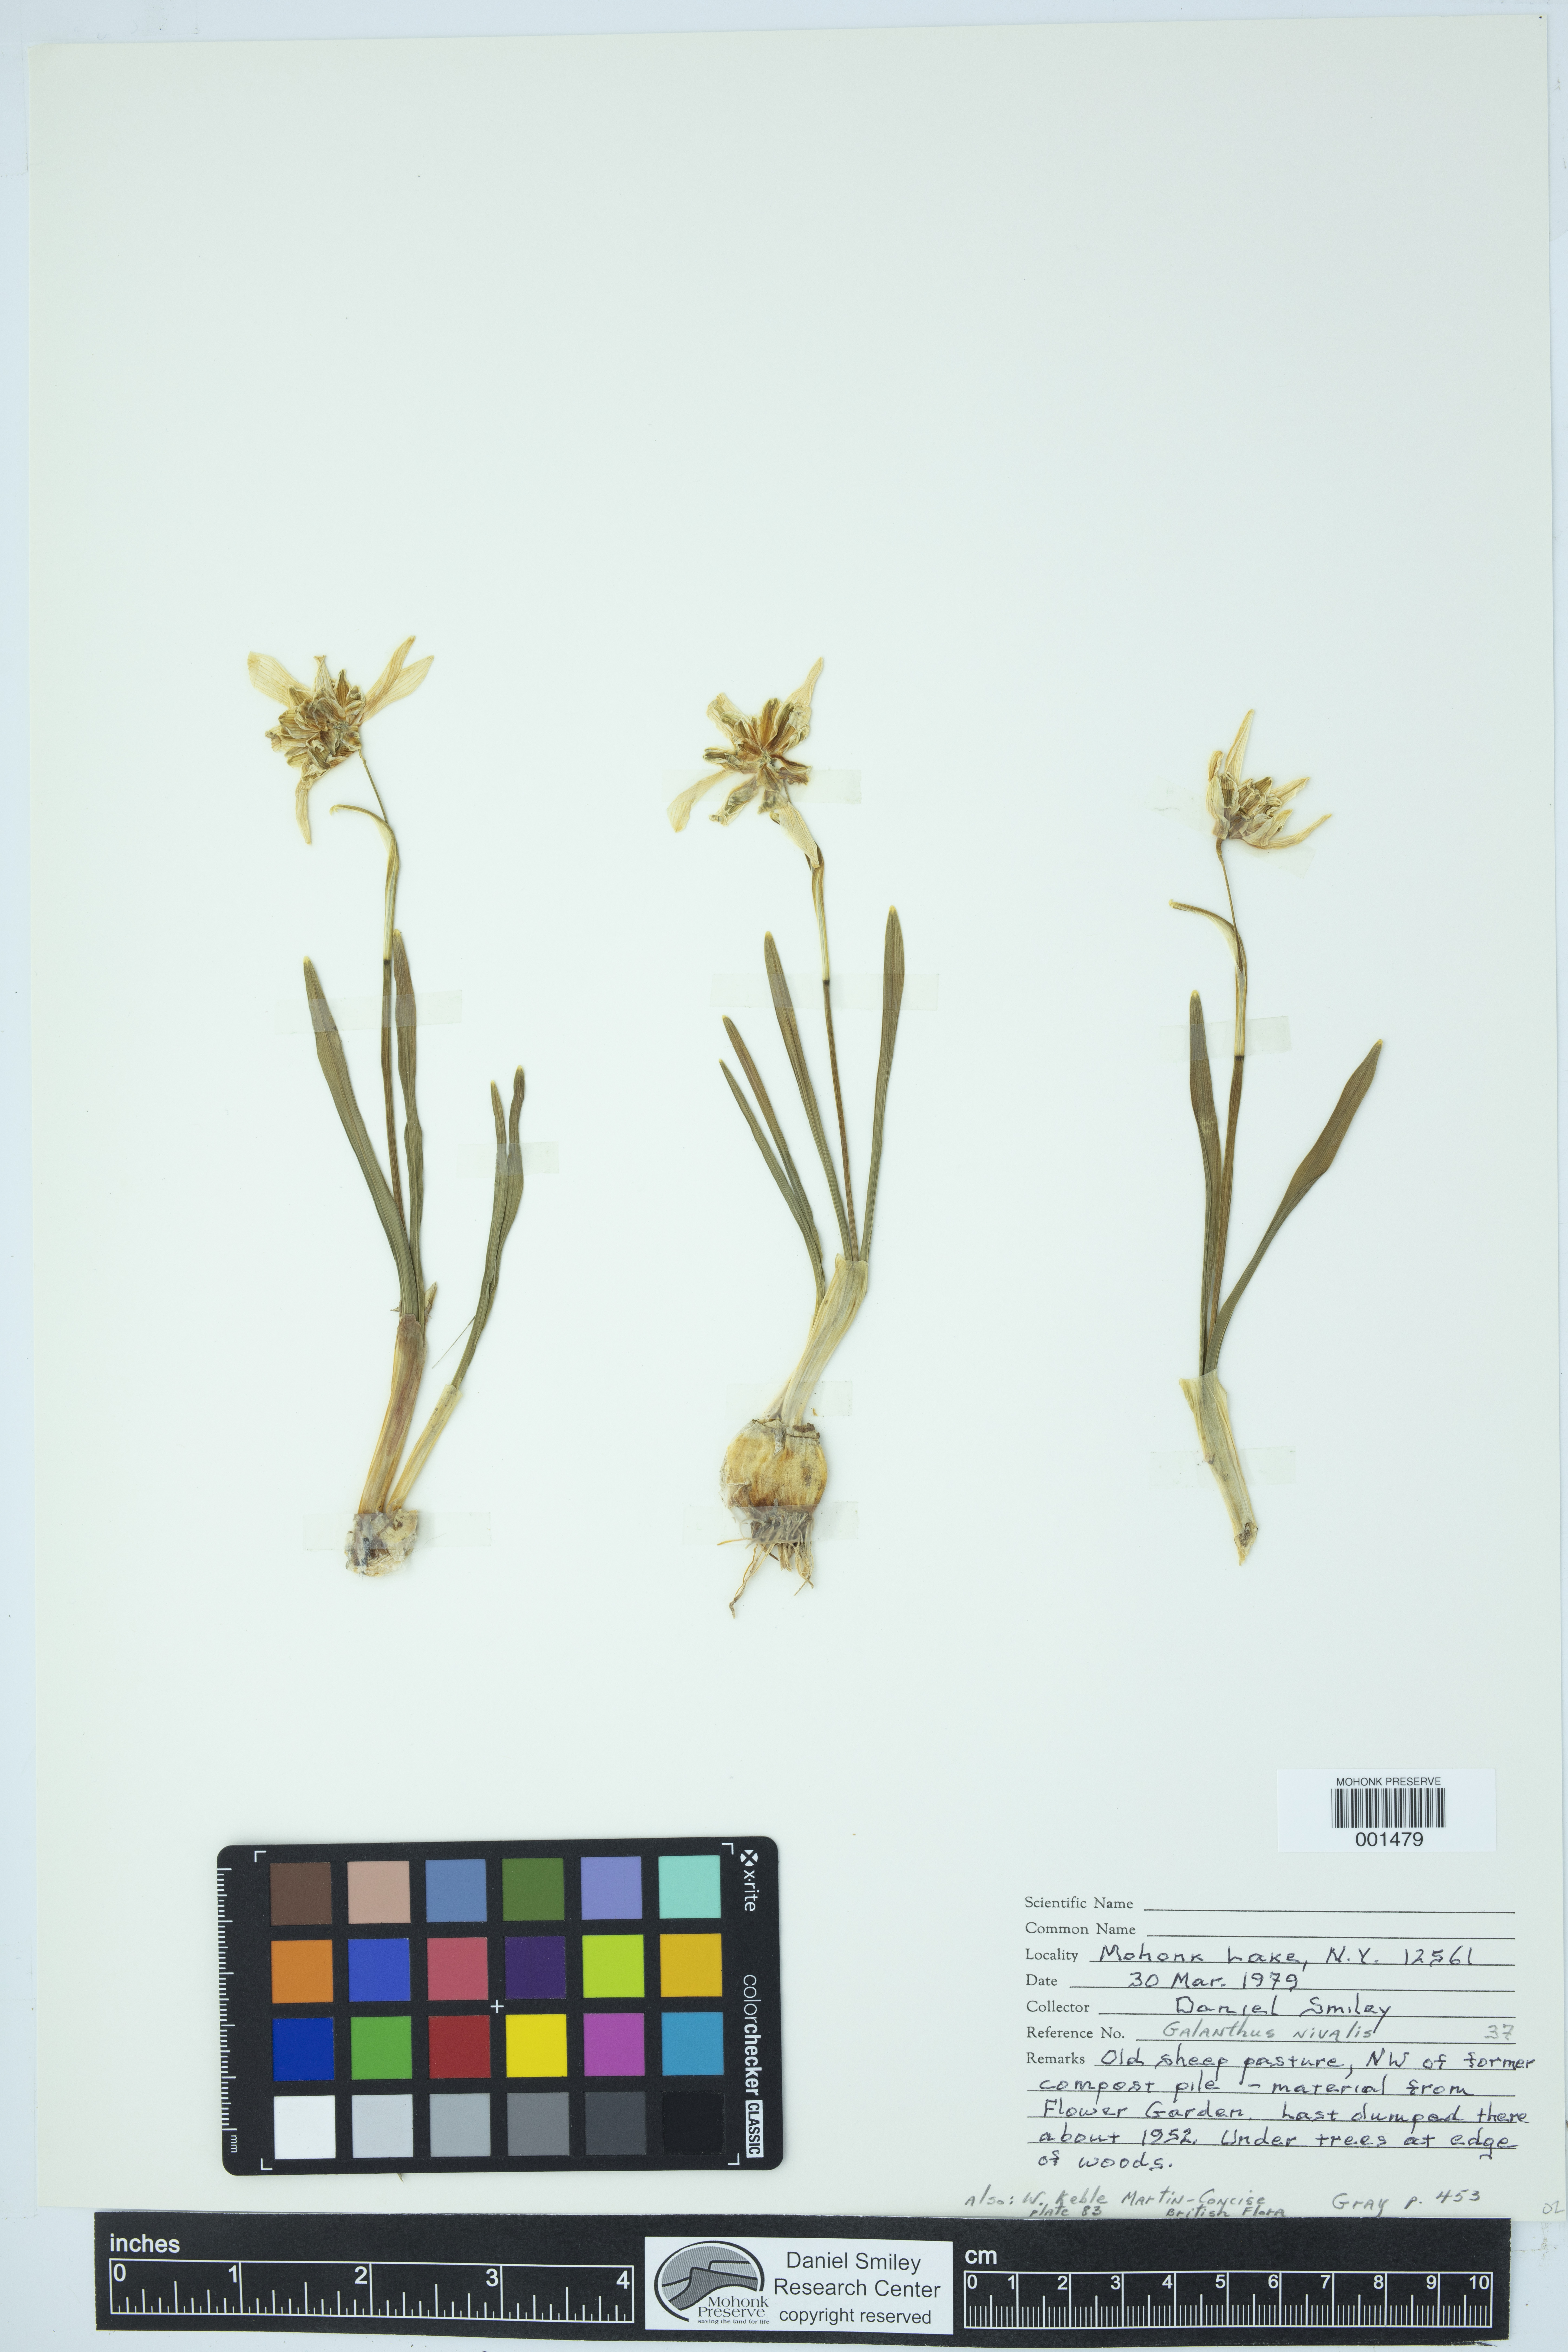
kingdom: Plantae
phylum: Tracheophyta
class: Liliopsida
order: Asparagales
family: Amaryllidaceae
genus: Galanthus
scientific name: Galanthus nivalis
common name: Snowdrop
